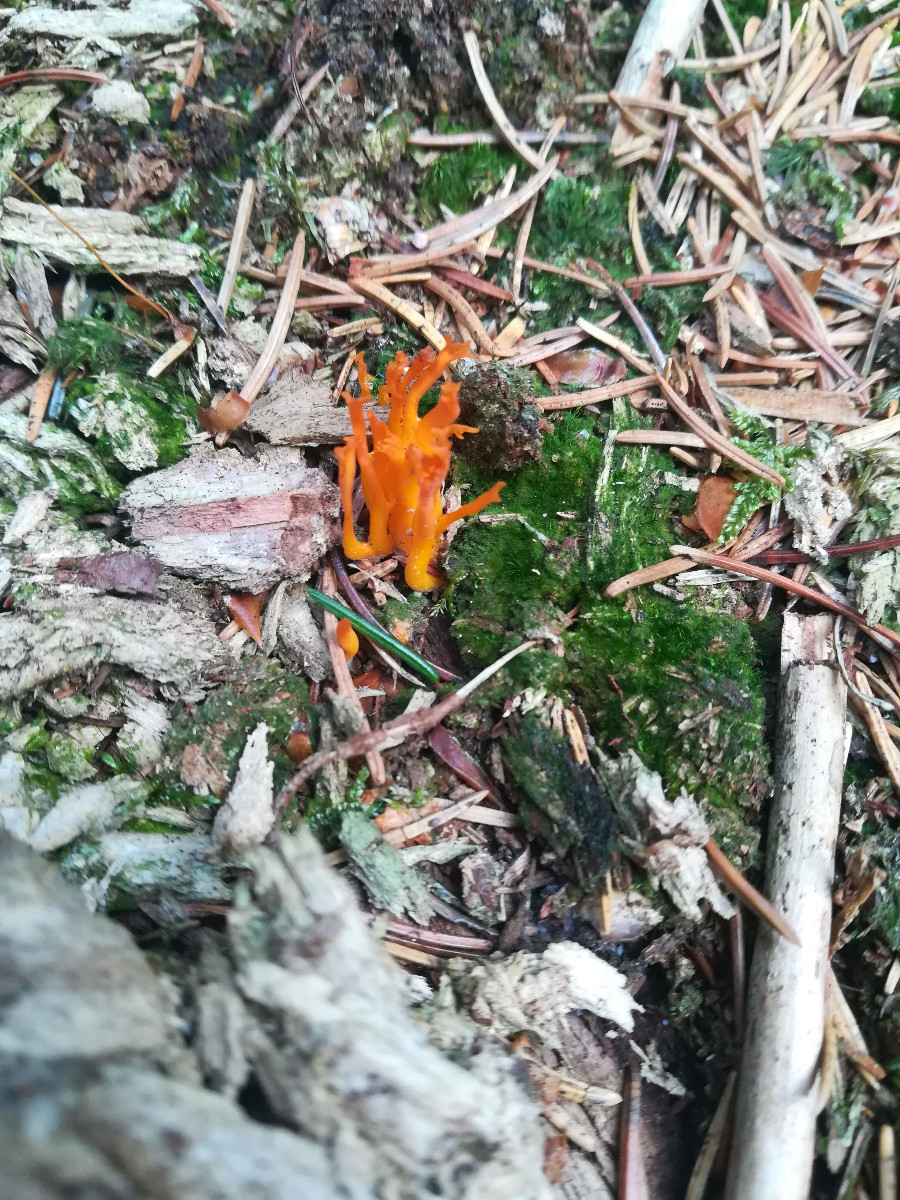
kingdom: Fungi
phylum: Basidiomycota
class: Dacrymycetes
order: Dacrymycetales
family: Dacrymycetaceae
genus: Calocera
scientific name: Calocera viscosa
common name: almindelig guldgaffel
